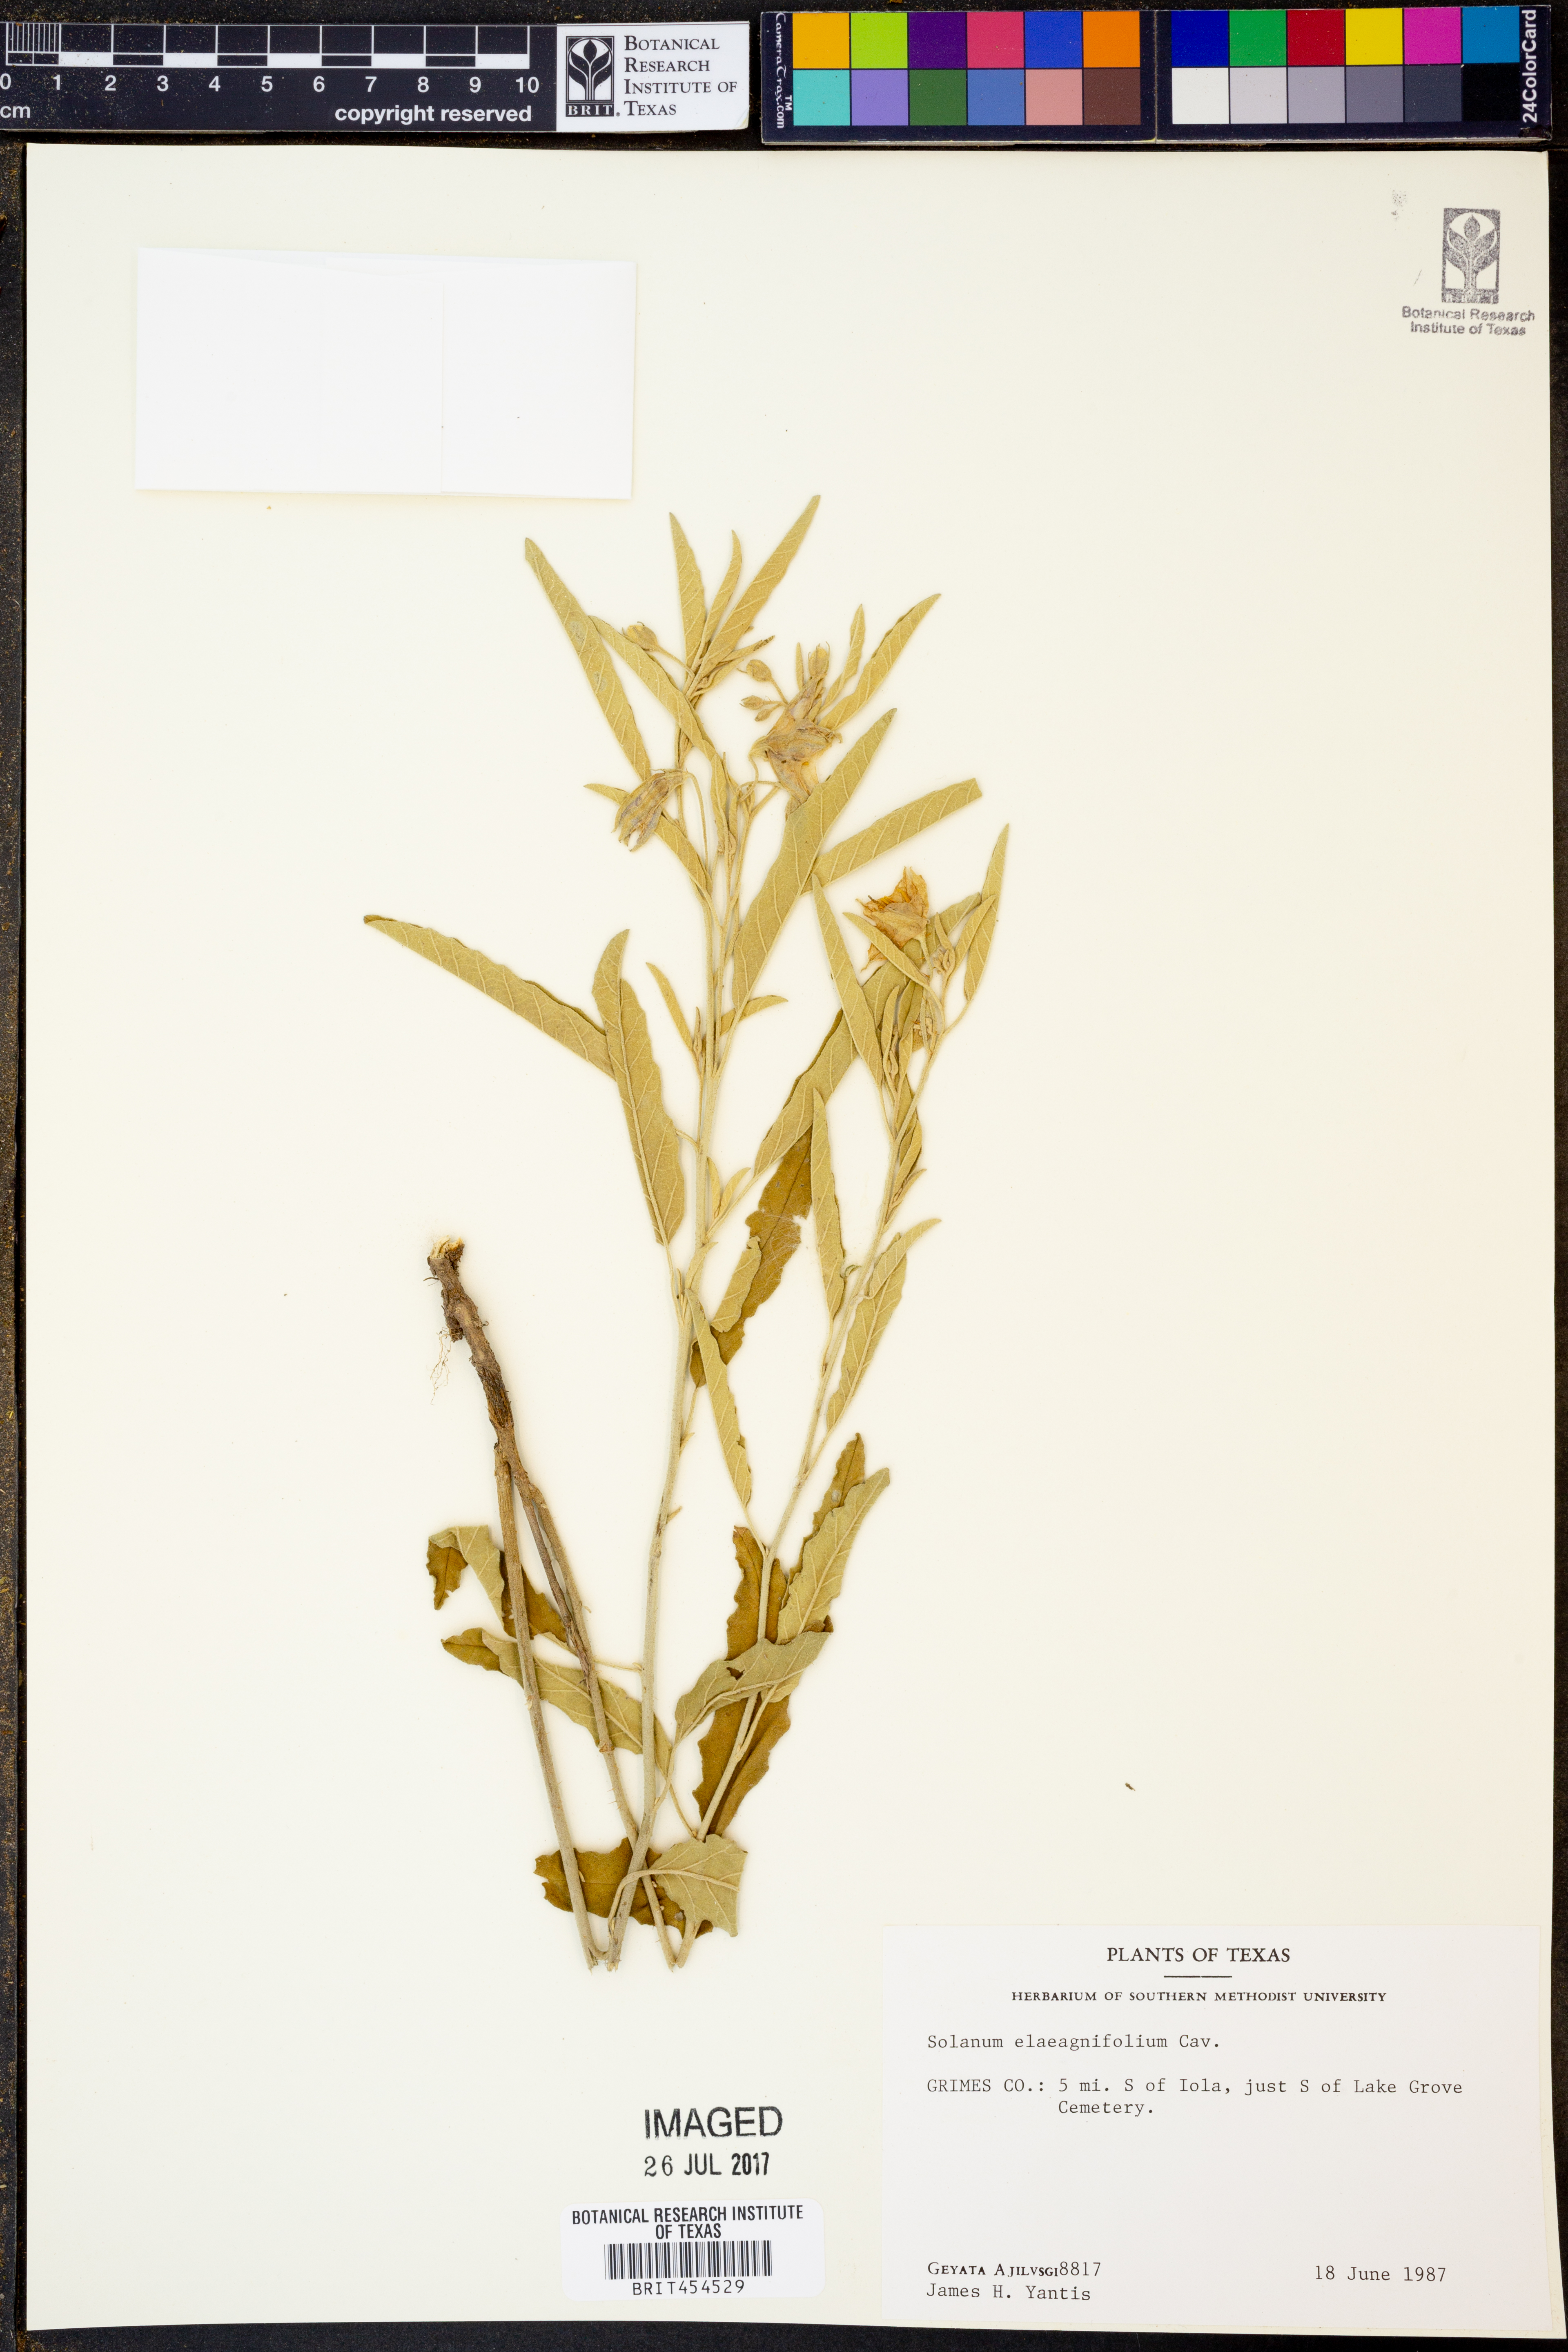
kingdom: Plantae
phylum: Tracheophyta
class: Magnoliopsida
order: Solanales
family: Solanaceae
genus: Solanum
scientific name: Solanum elaeagnifolium
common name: Silverleaf nightshade
